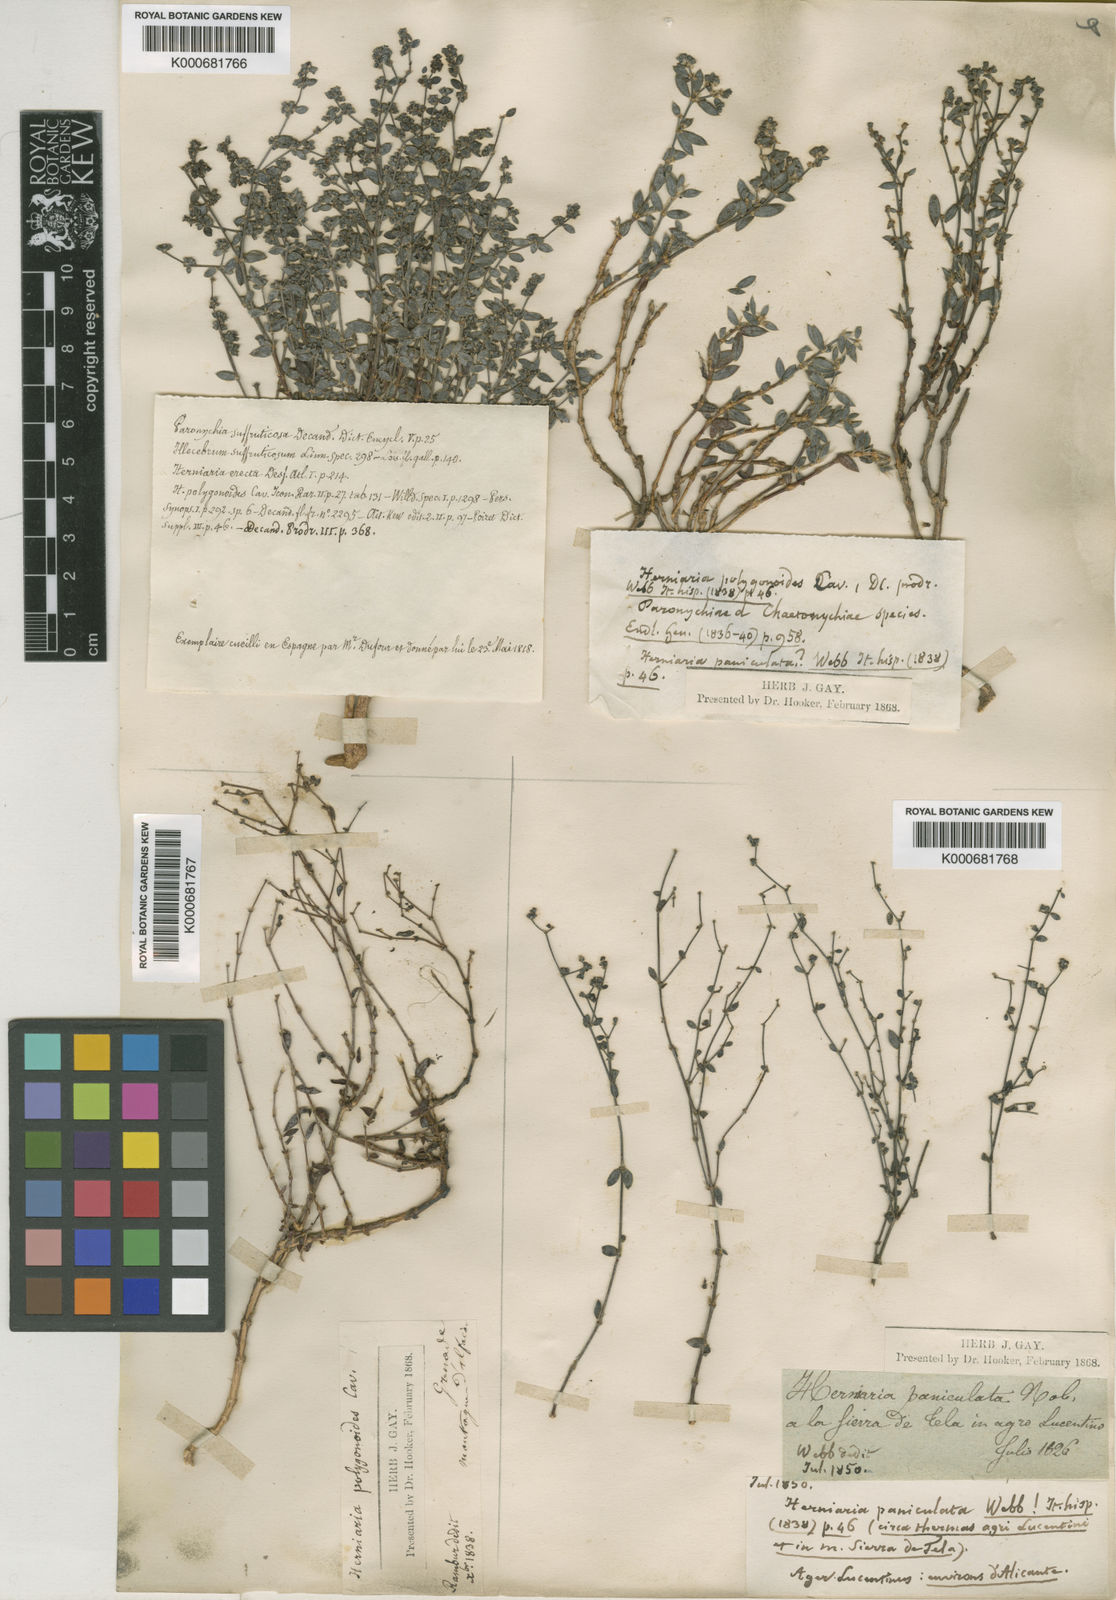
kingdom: Plantae
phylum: Tracheophyta
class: Magnoliopsida
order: Caryophyllales
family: Caryophyllaceae
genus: Paronychia
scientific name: Paronychia weberbaueri
